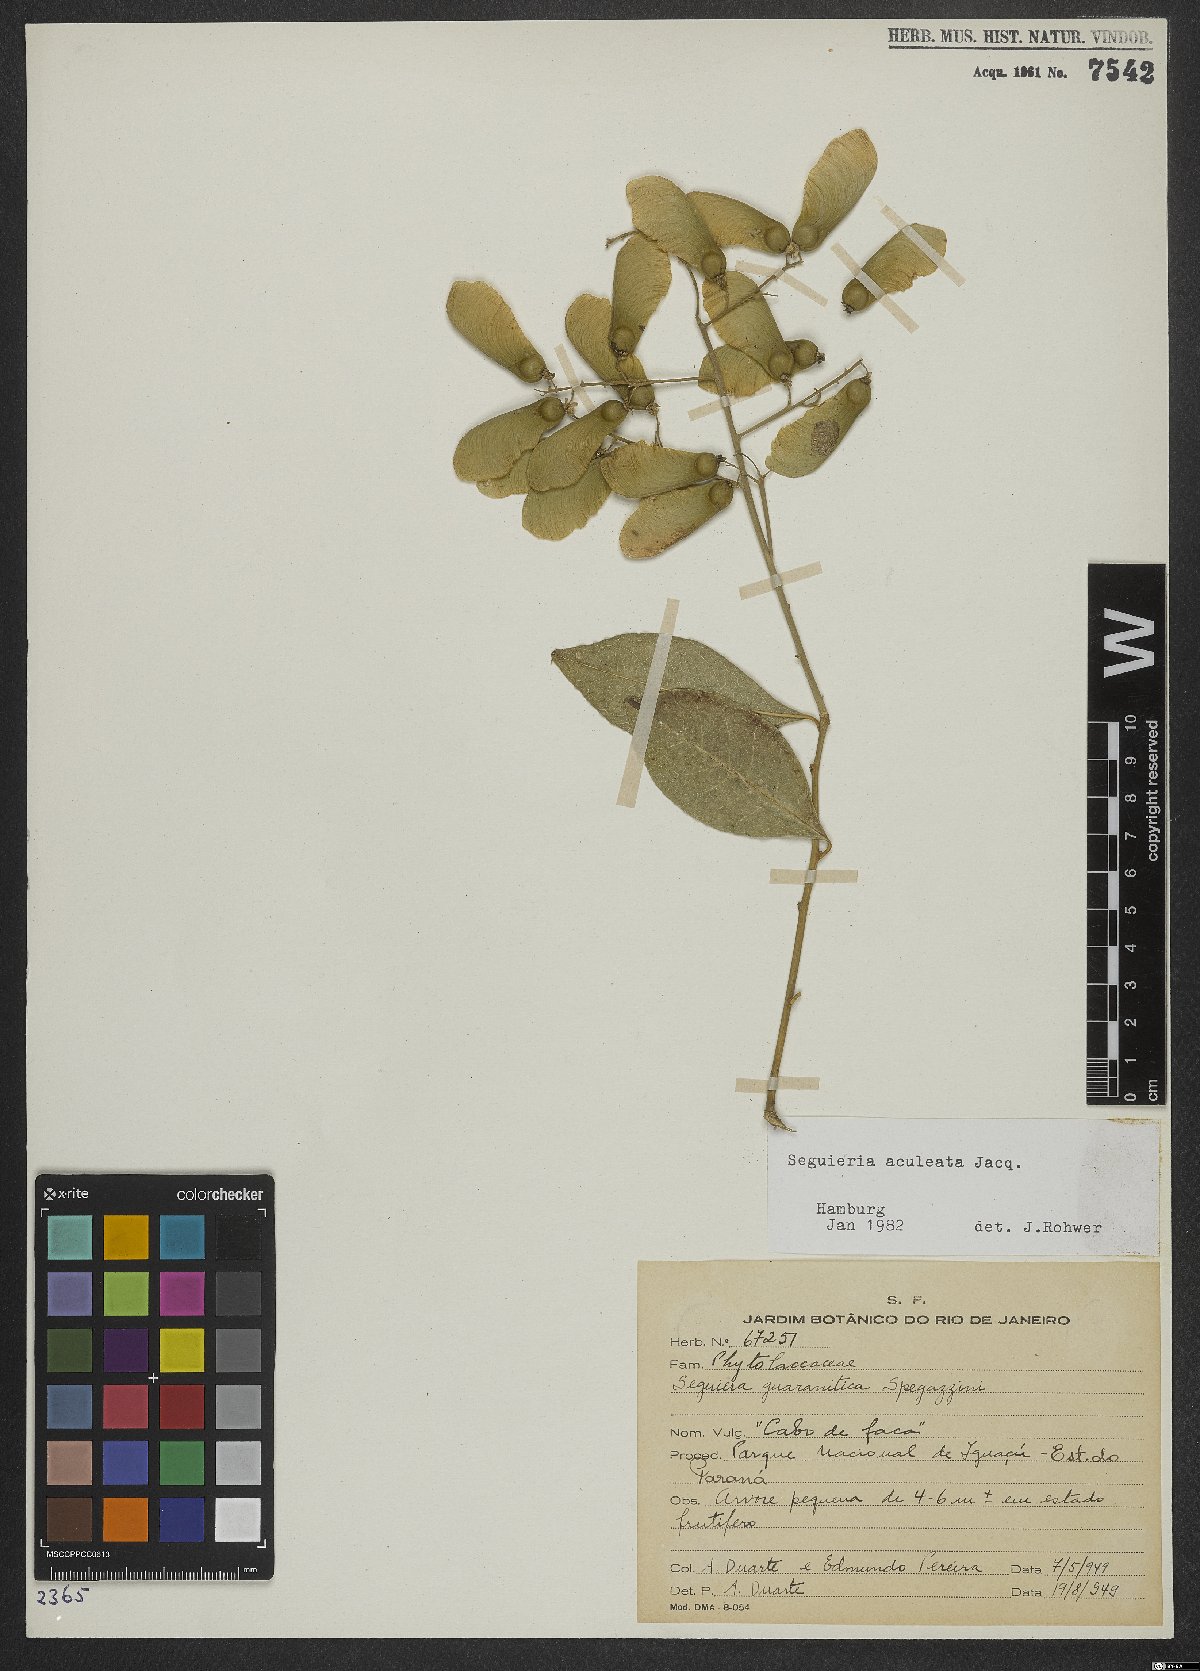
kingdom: Plantae
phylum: Tracheophyta
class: Magnoliopsida
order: Caryophyllales
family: Phytolaccaceae
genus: Seguieria
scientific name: Seguieria aculeata
